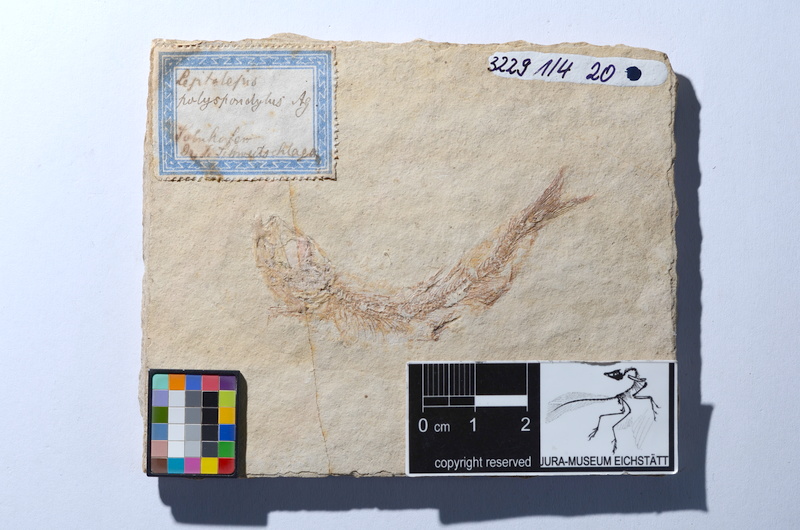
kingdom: Animalia
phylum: Chordata
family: Ascalaboidae
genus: Tharsis
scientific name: Tharsis dubius
